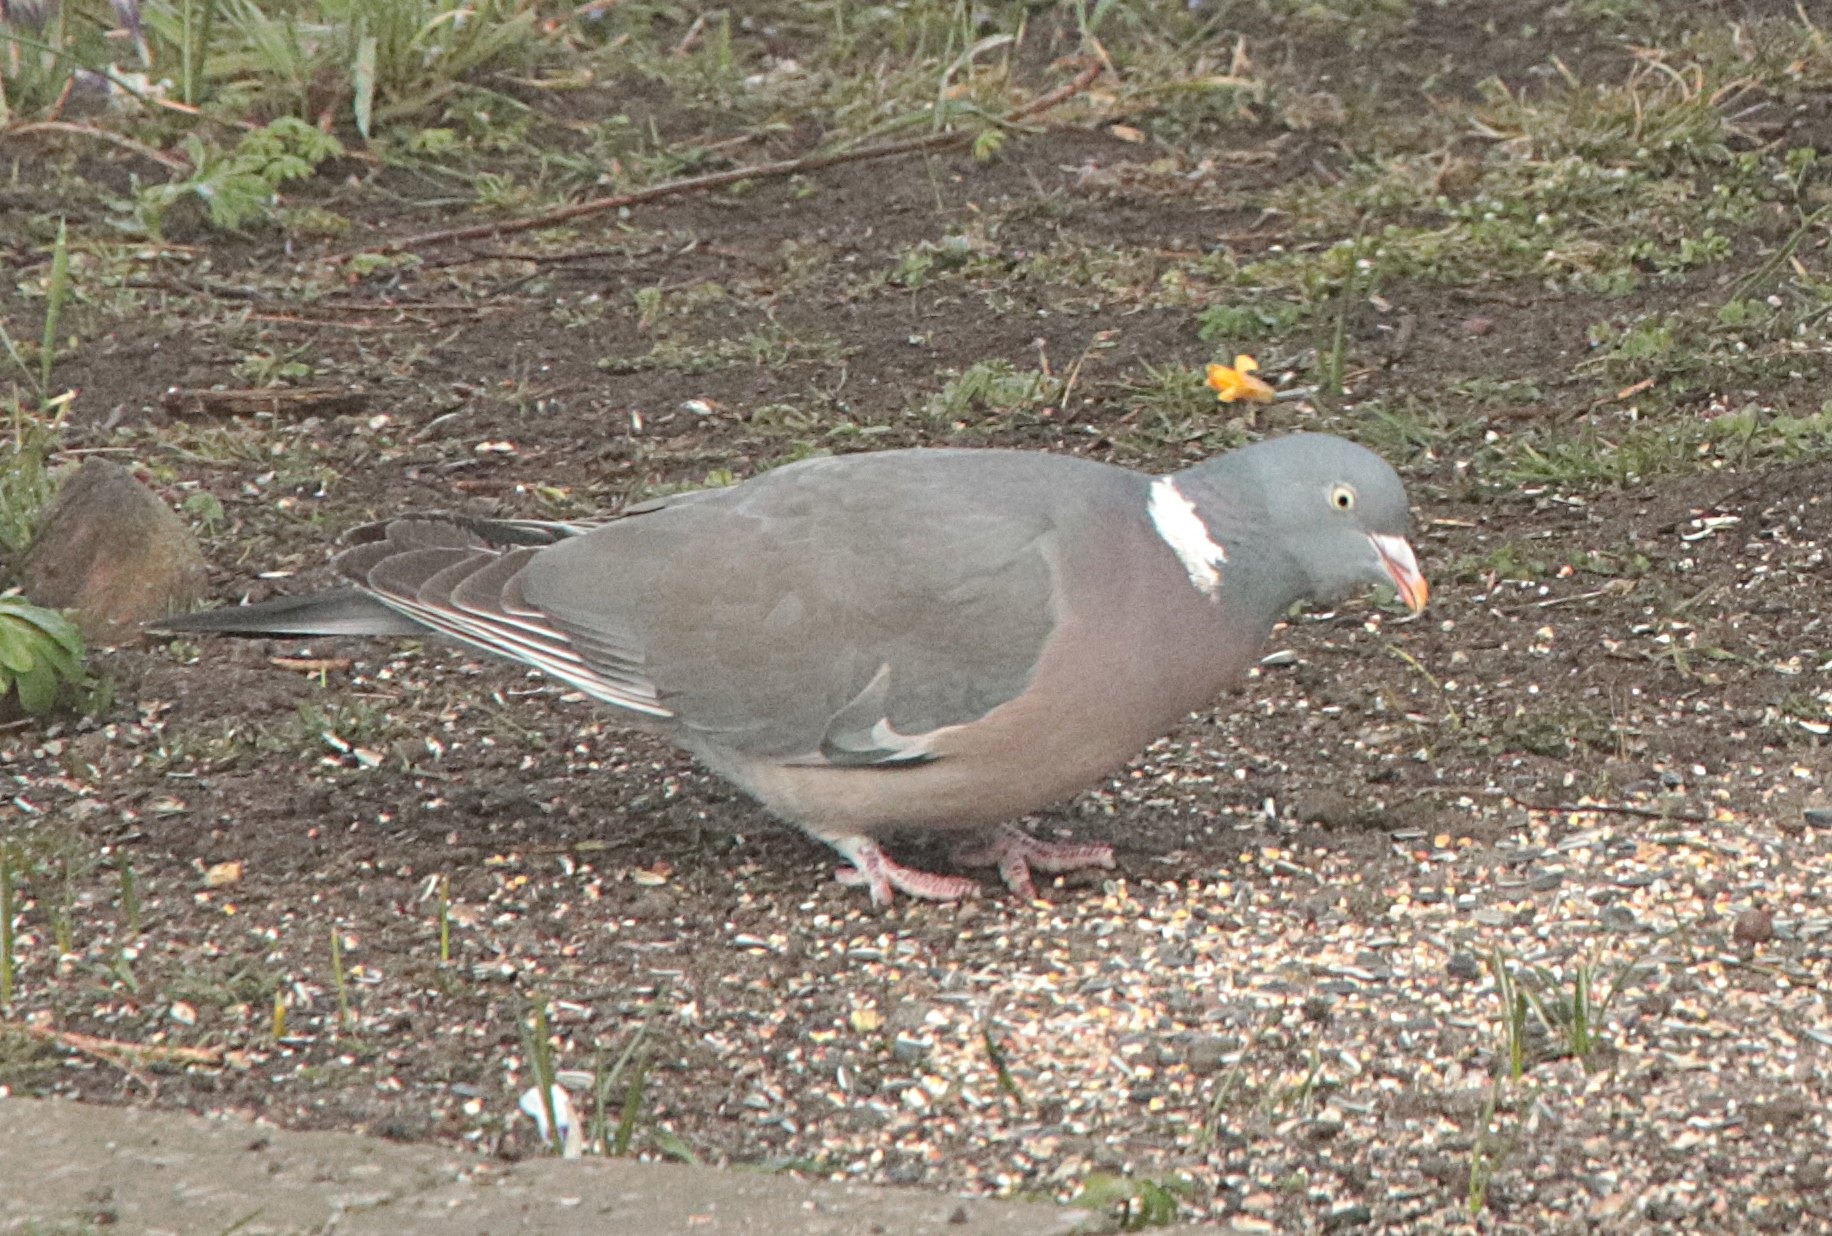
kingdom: Animalia
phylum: Chordata
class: Aves
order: Columbiformes
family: Columbidae
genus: Columba
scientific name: Columba palumbus
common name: Ringdue
